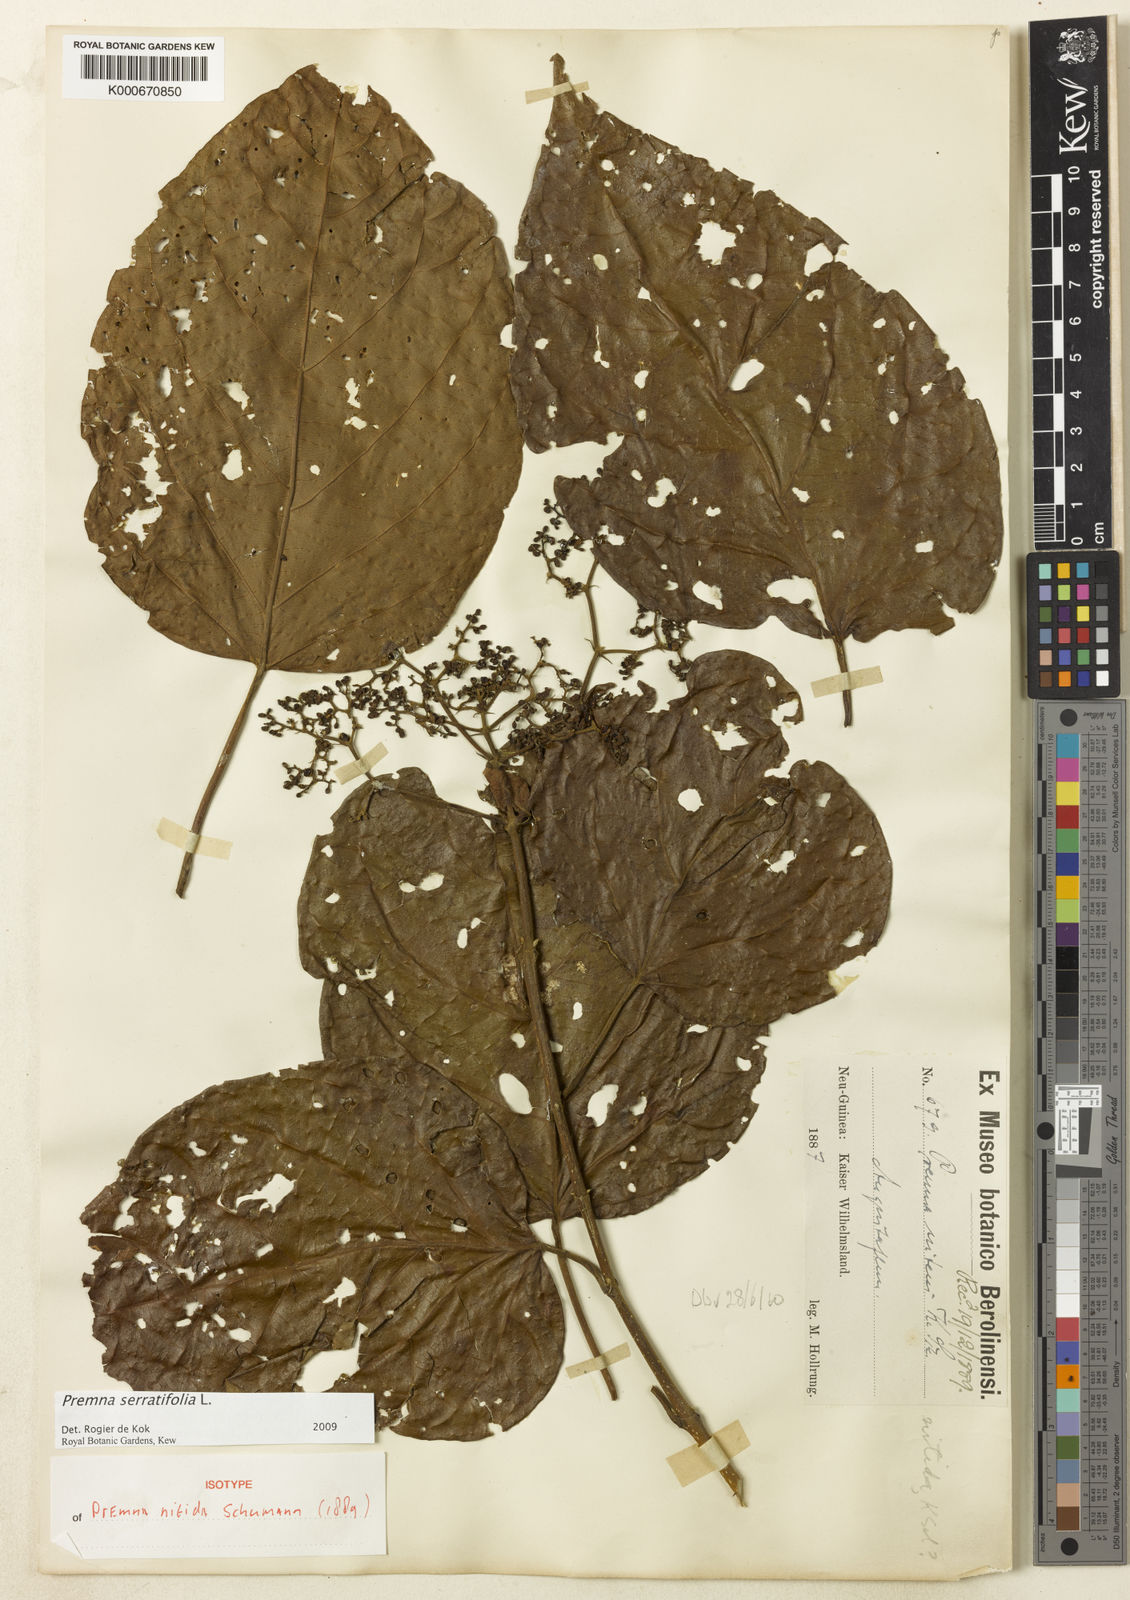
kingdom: Plantae
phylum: Tracheophyta
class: Magnoliopsida
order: Lamiales
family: Lamiaceae
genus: Premna
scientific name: Premna serratifolia
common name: Bastard guelder
